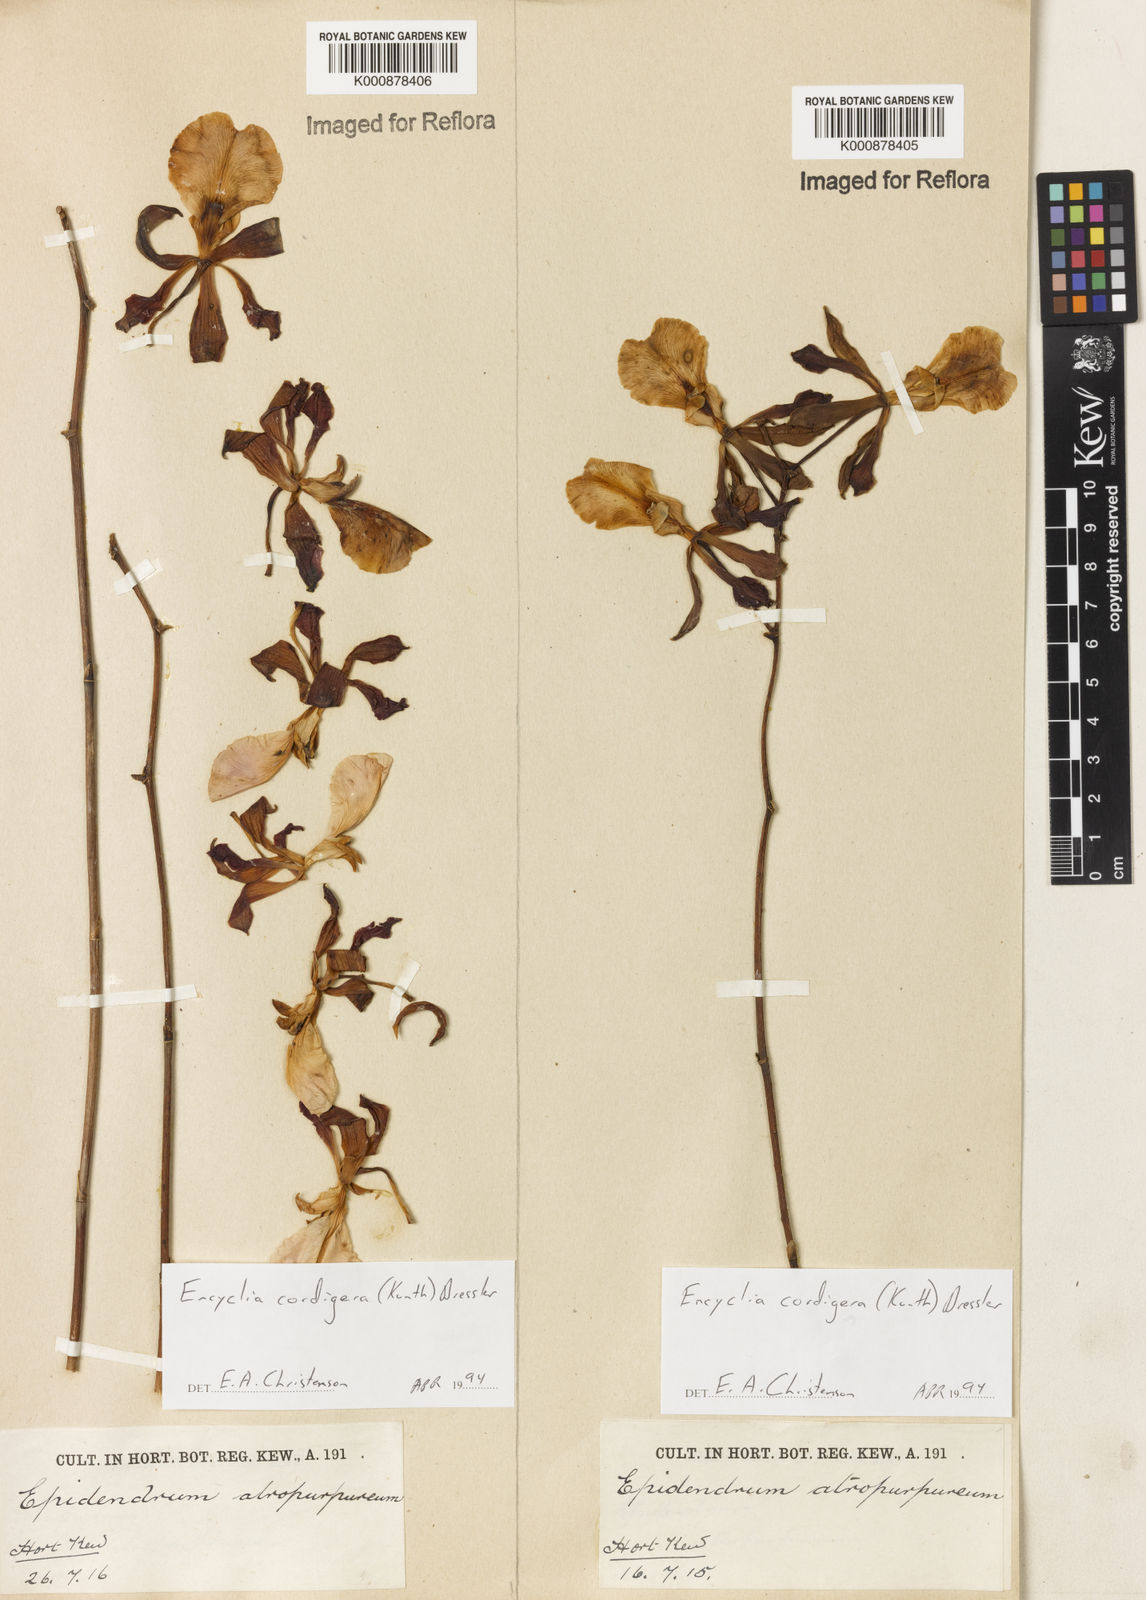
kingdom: Plantae
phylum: Tracheophyta
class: Liliopsida
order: Asparagales
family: Orchidaceae
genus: Encyclia
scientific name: Encyclia cordigera
